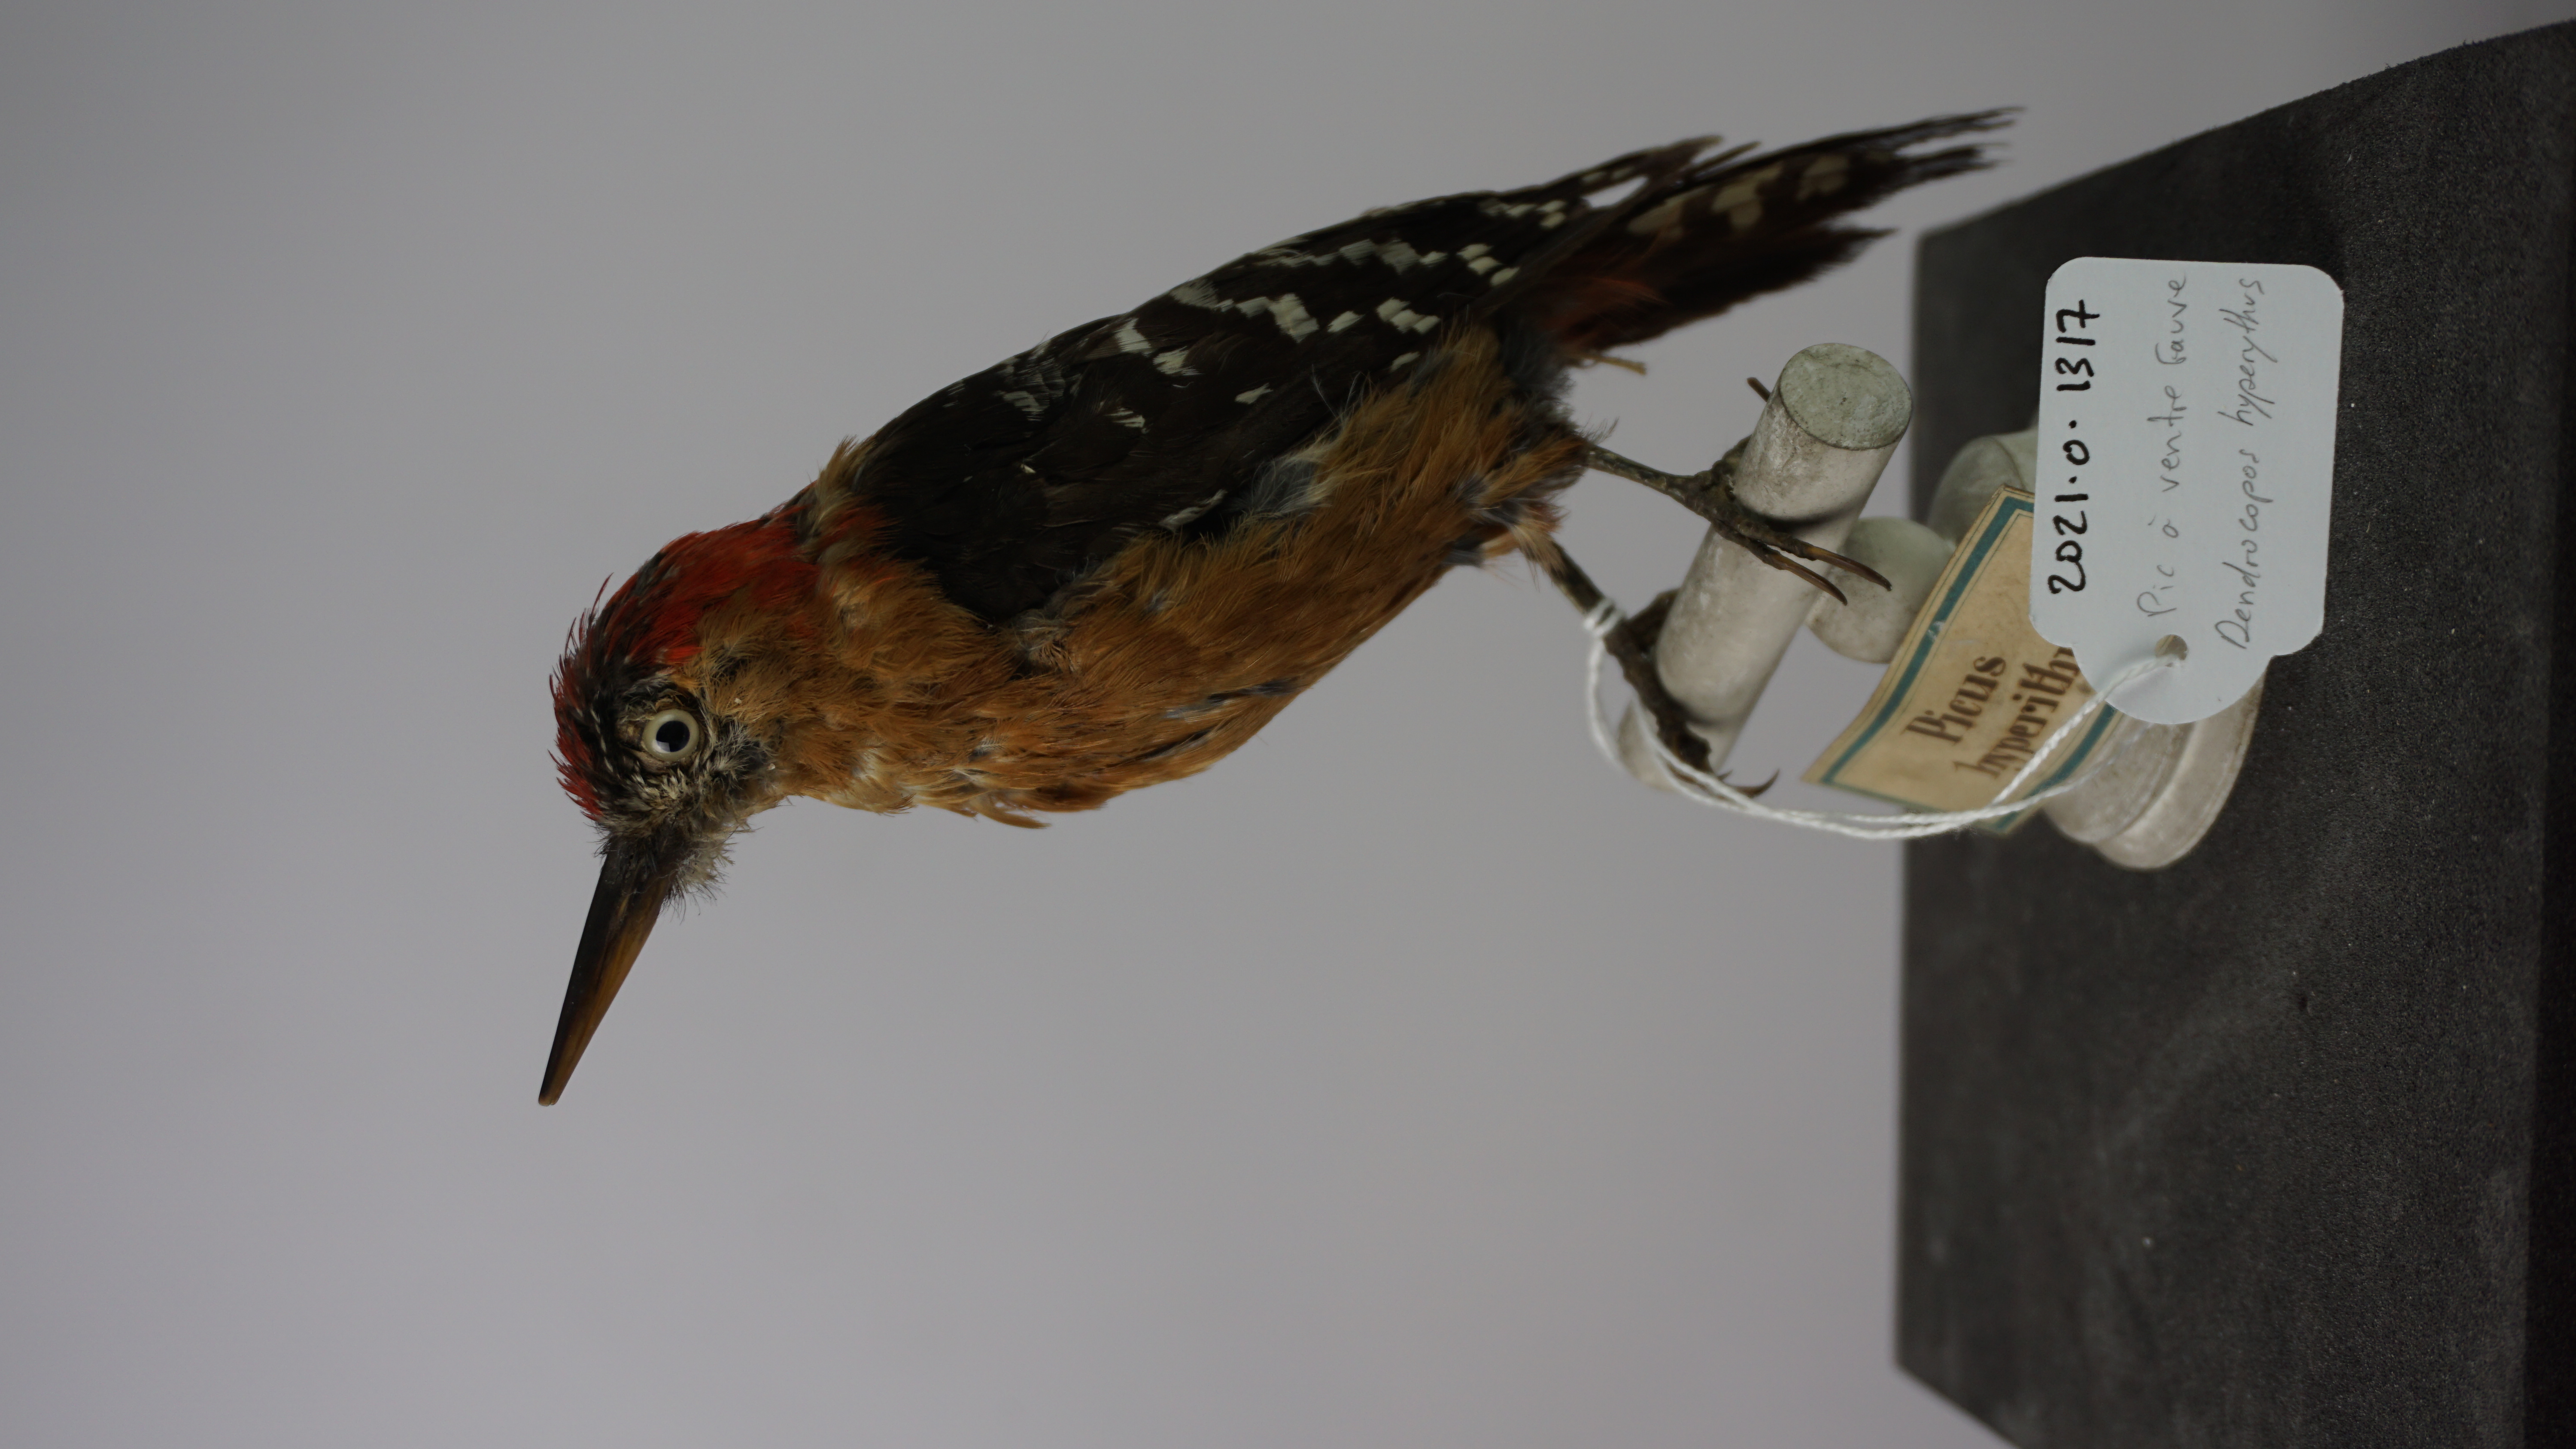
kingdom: Animalia
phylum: Chordata
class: Aves
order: Piciformes
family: Picidae
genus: Dendrocopos
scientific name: Dendrocopos hyperythrus
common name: Rufous-bellied woodpecker
